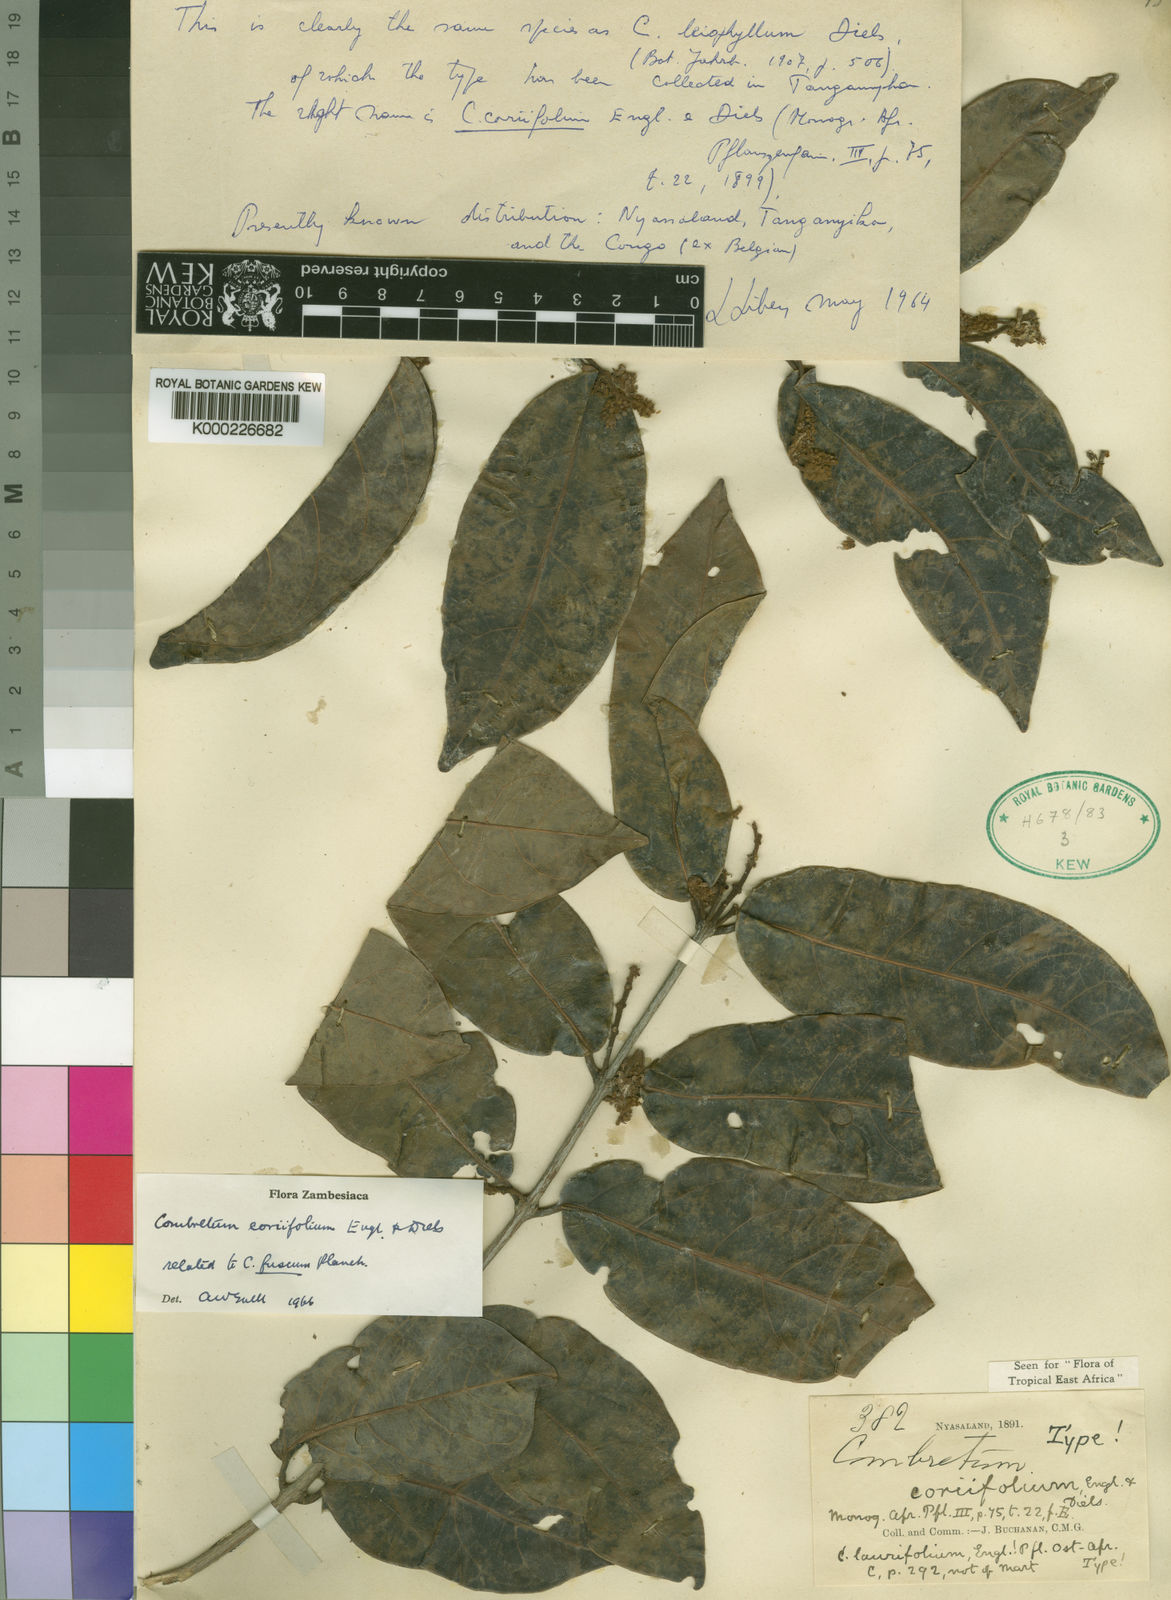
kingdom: Plantae
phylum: Tracheophyta
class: Magnoliopsida
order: Myrtales
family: Combretaceae
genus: Combretum
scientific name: Combretum coriifolium
